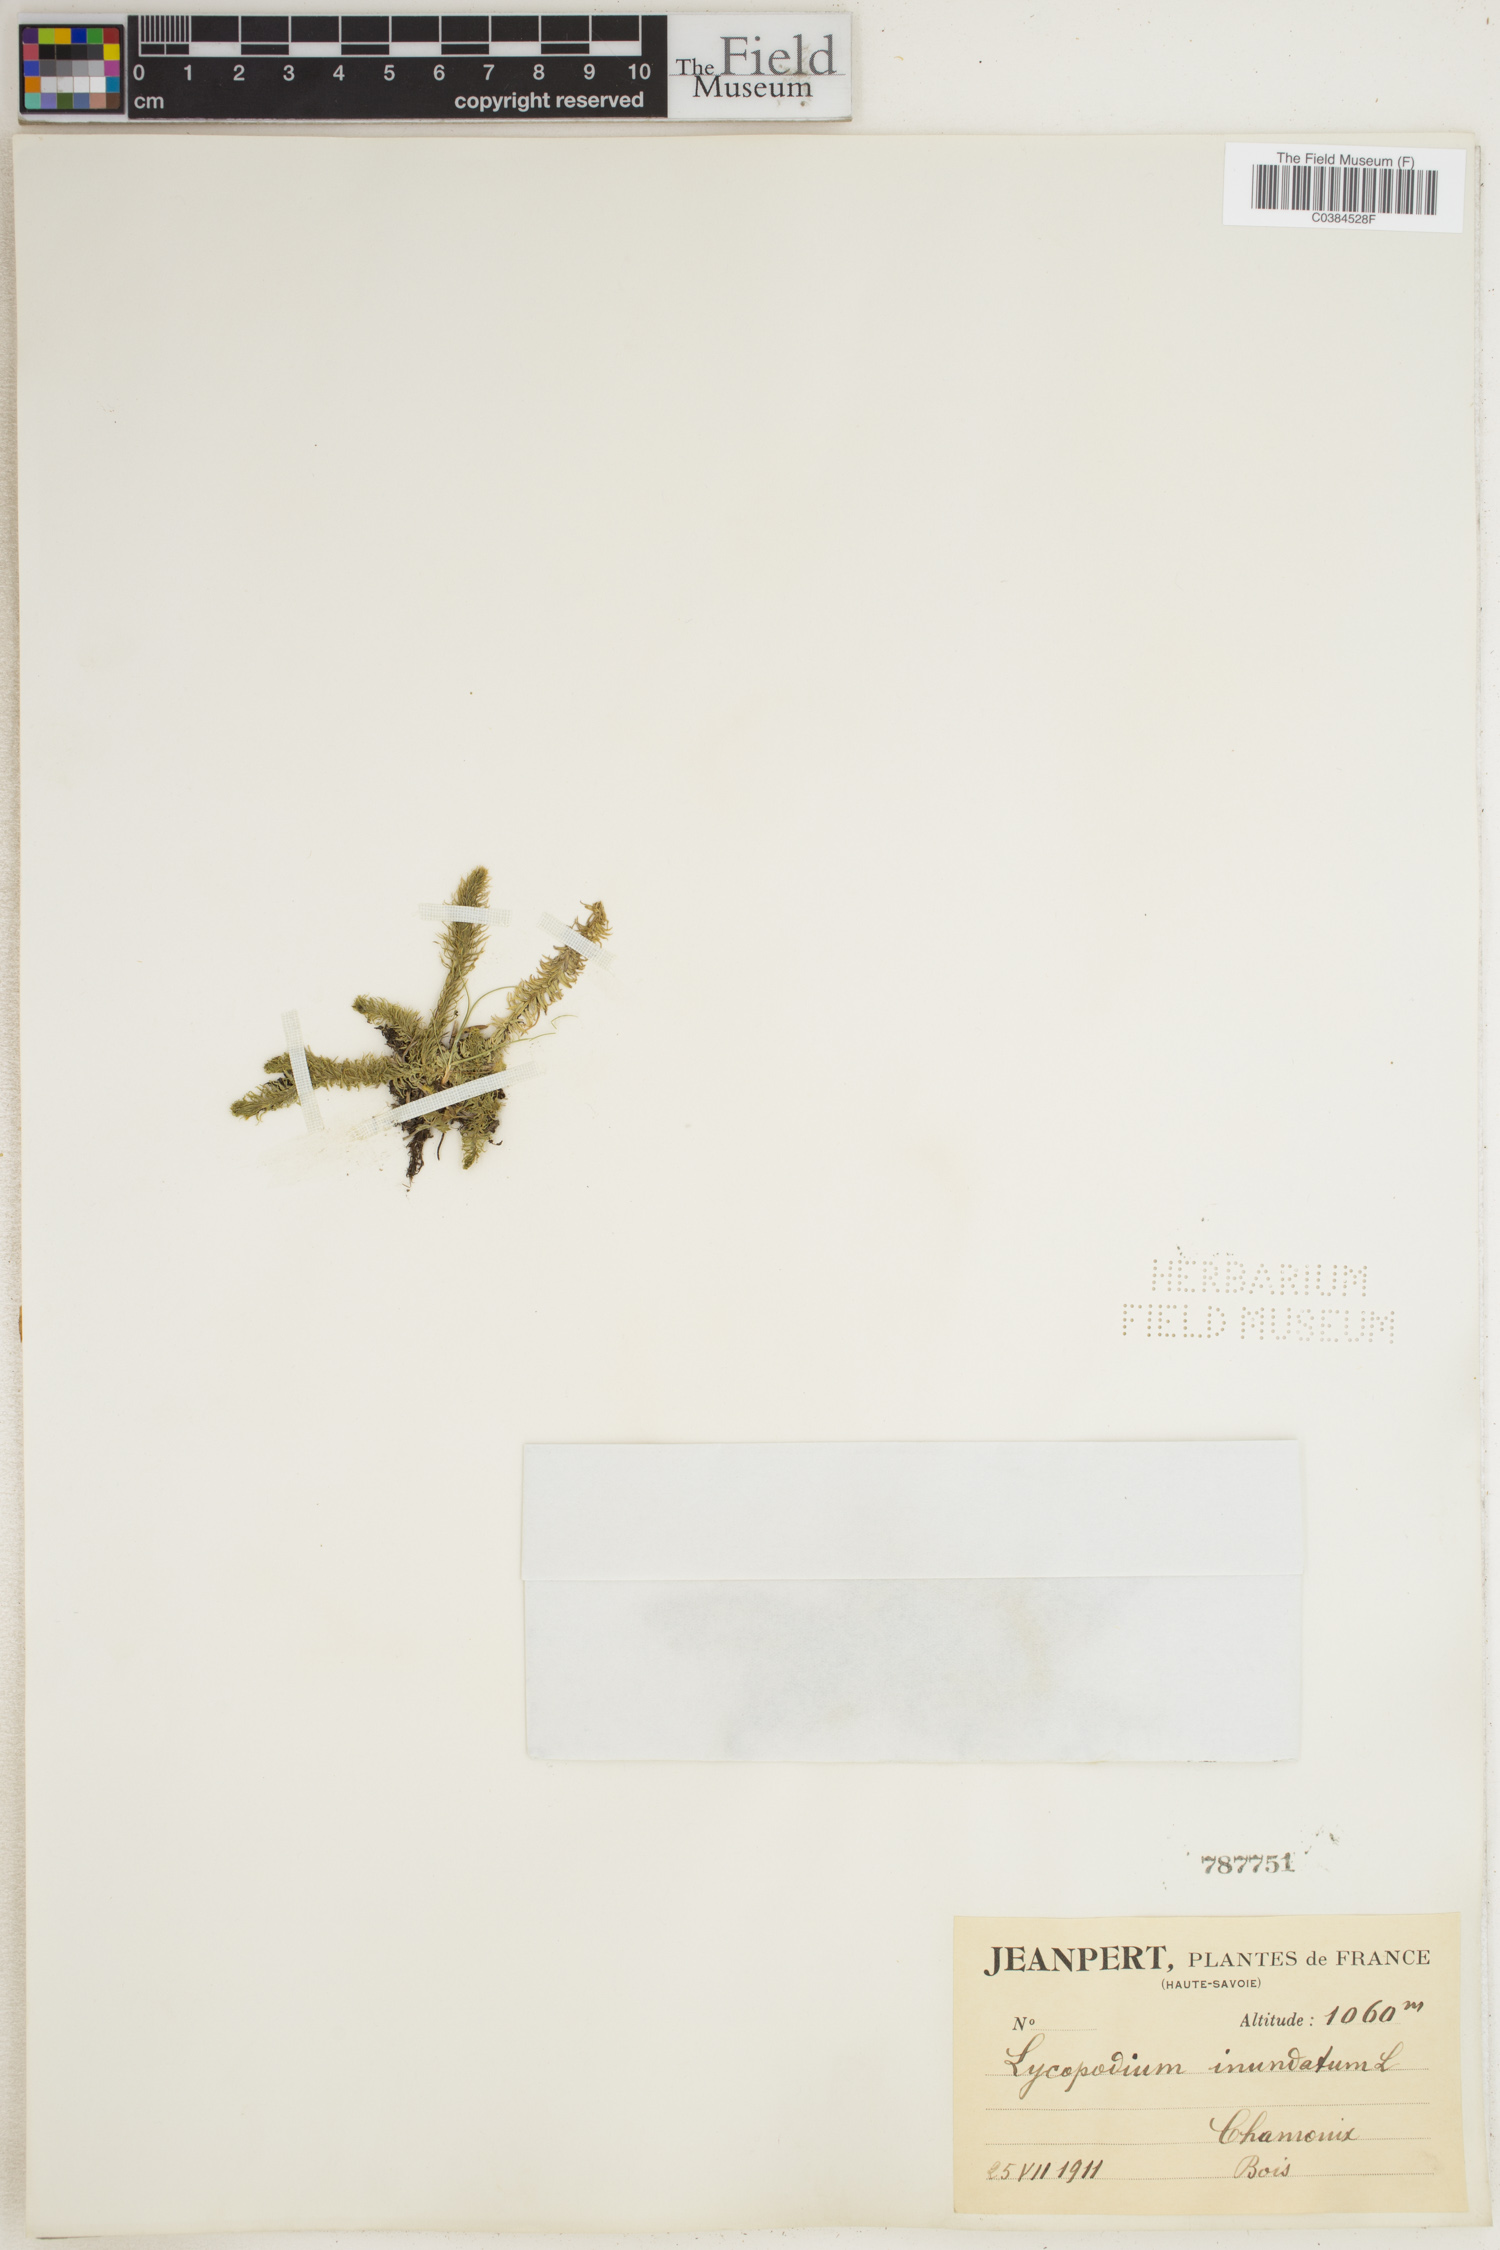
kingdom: Plantae
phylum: Tracheophyta
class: Lycopodiopsida
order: Lycopodiales
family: Lycopodiaceae
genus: Lycopodiella
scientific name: Lycopodiella inundata
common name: Marsh clubmoss
